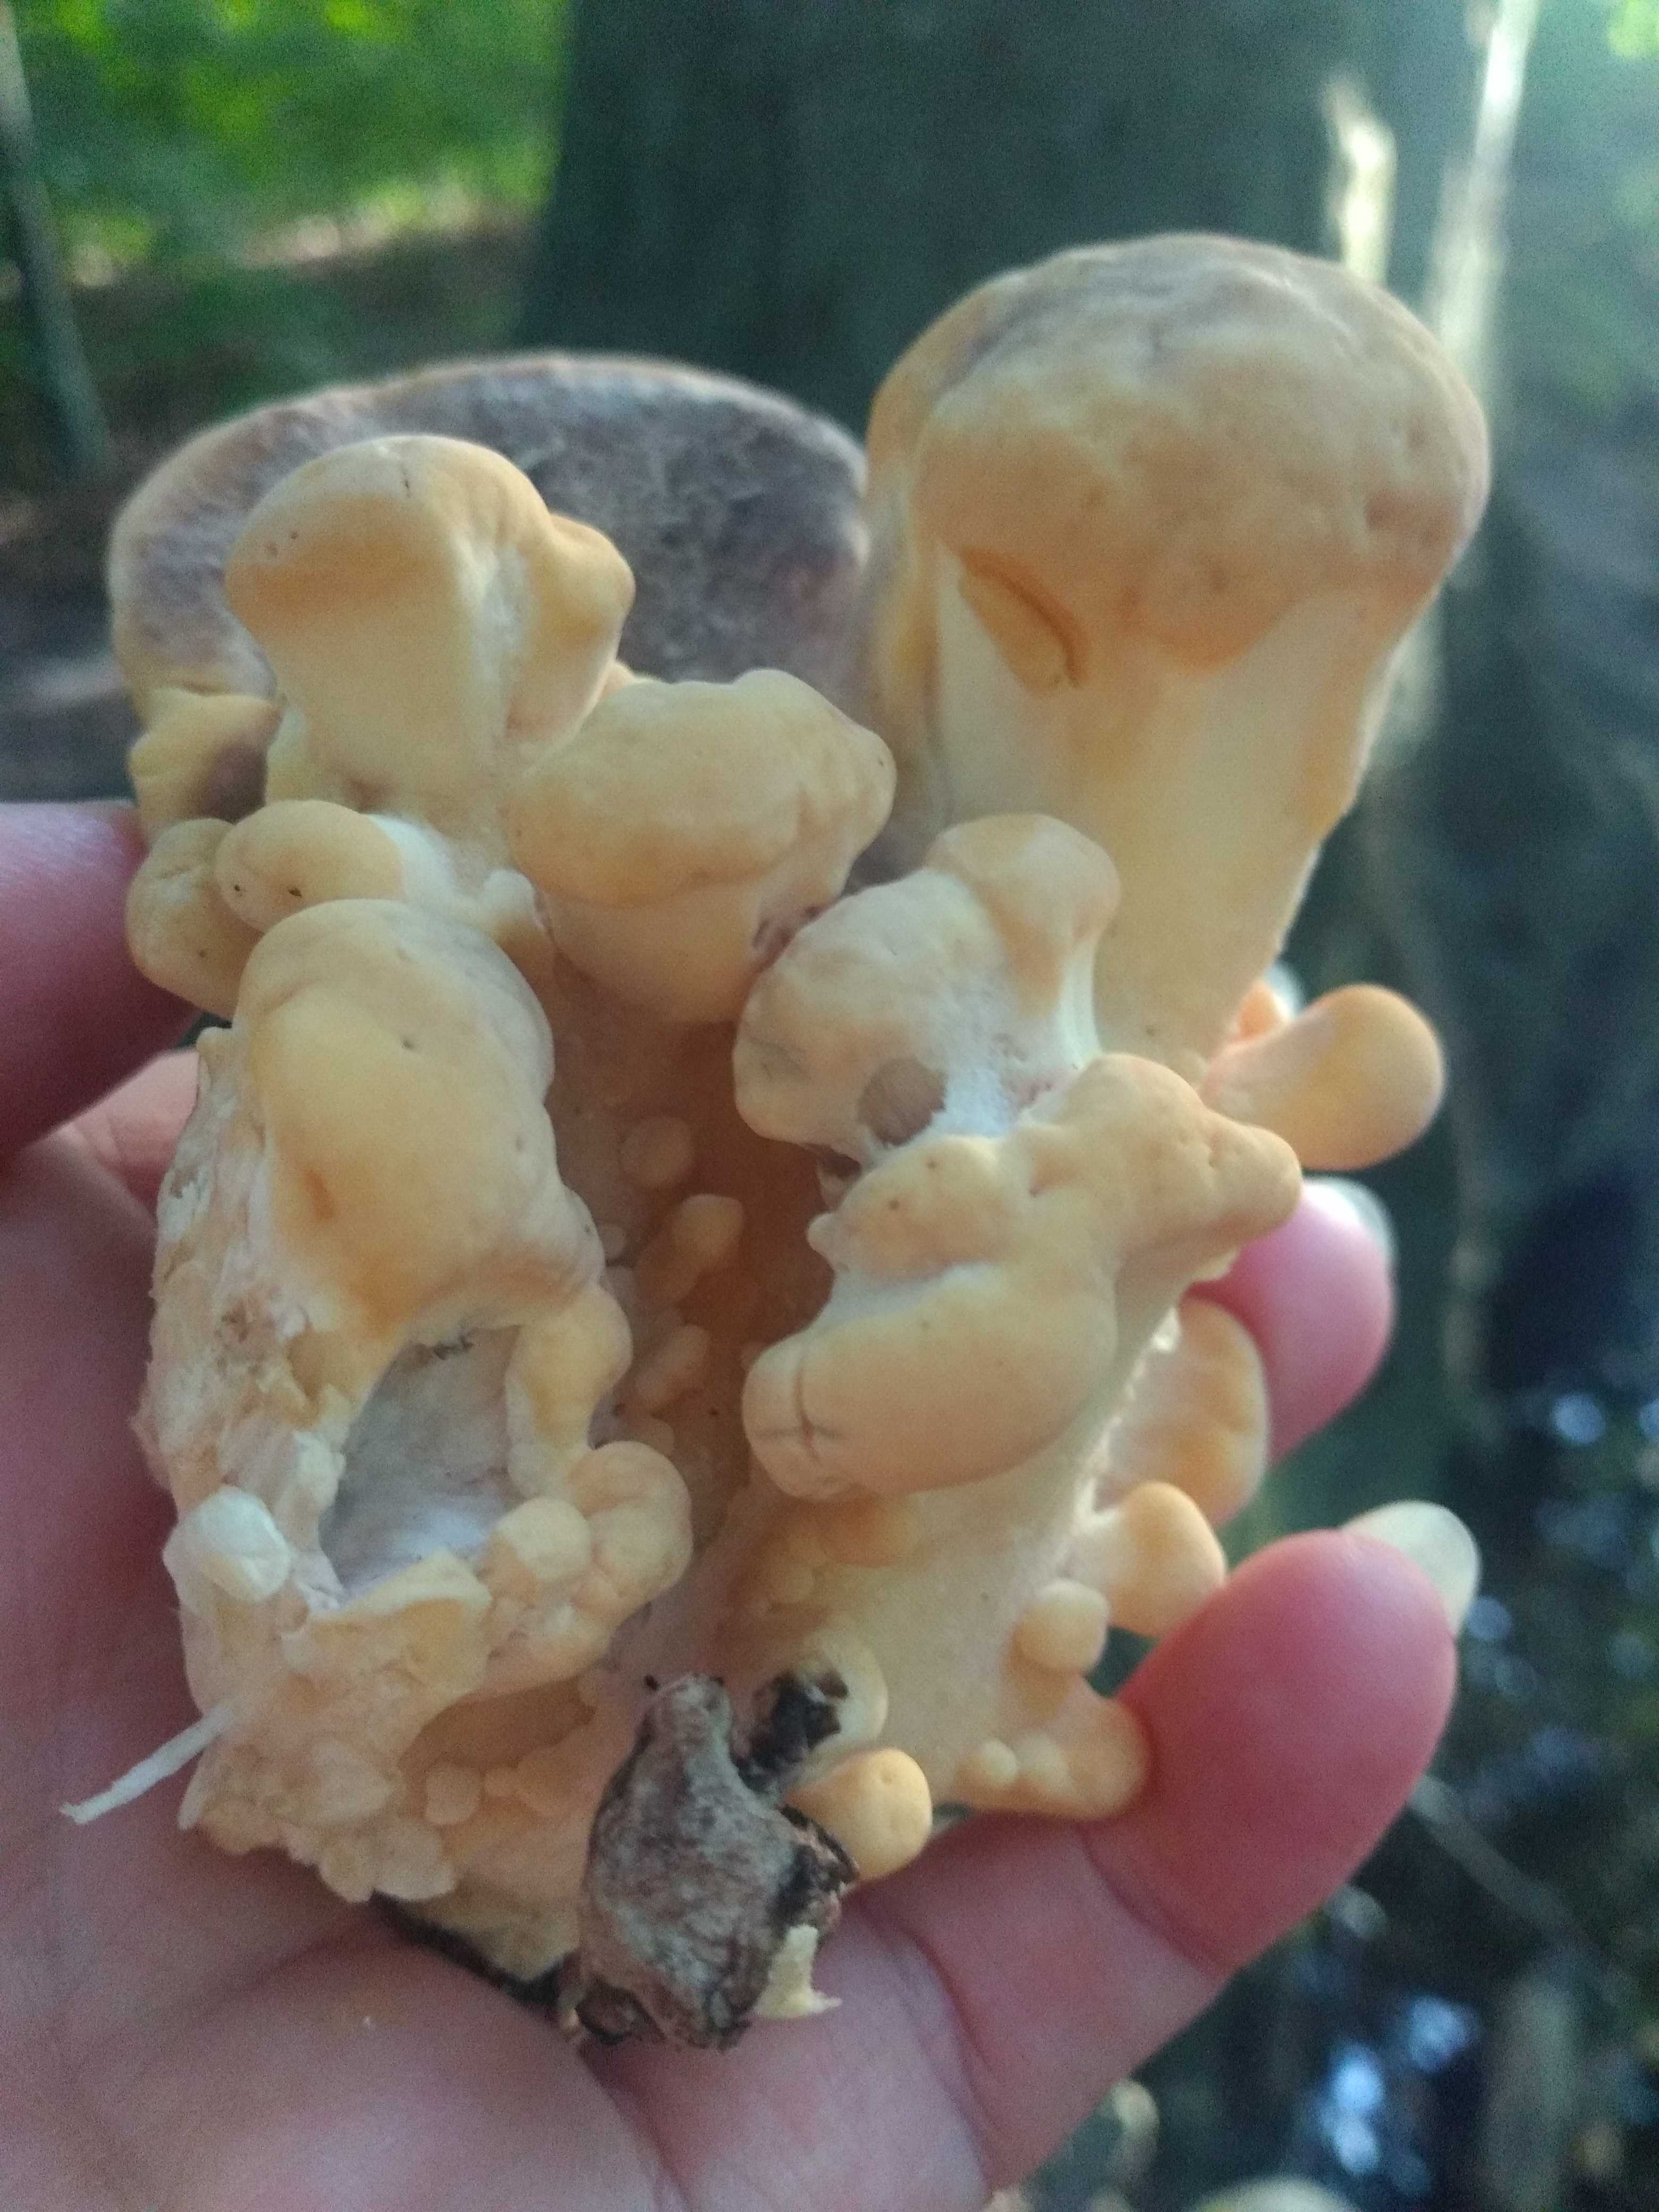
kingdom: Fungi
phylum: Basidiomycota
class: Agaricomycetes
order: Polyporales
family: Meripilaceae
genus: Meripilus
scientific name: Meripilus giganteus
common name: kæmpeporesvamp
